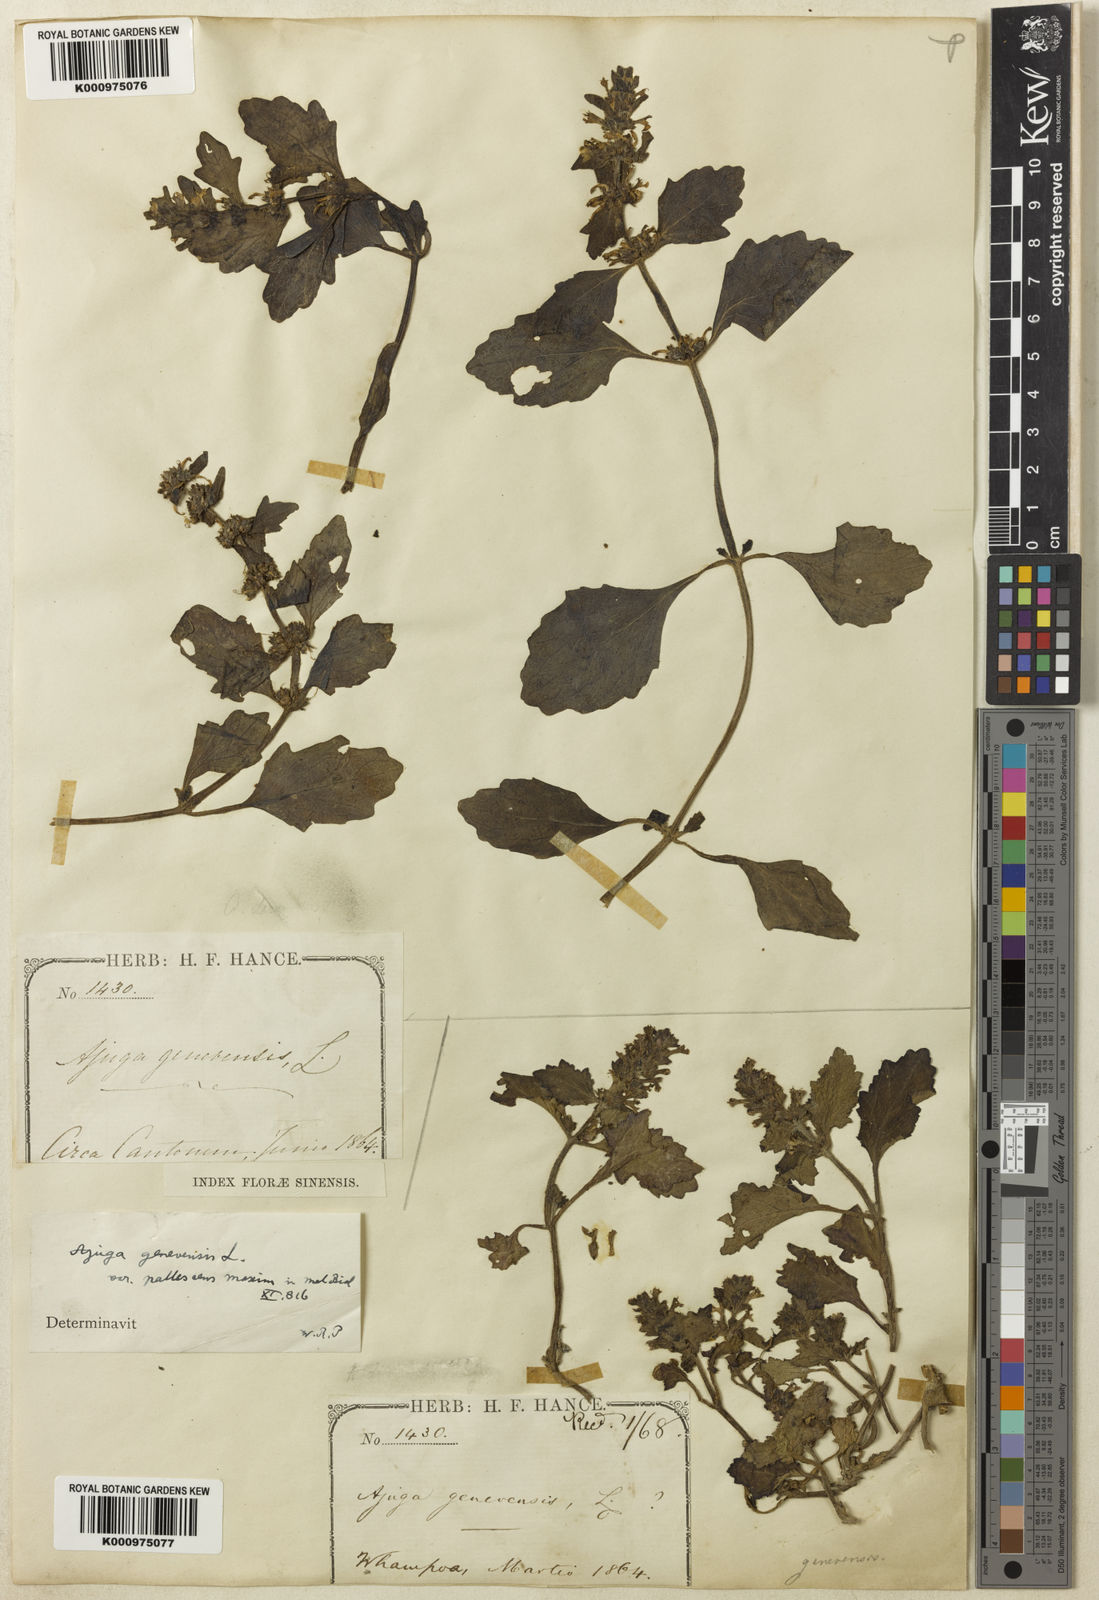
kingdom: Plantae
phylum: Tracheophyta
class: Magnoliopsida
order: Lamiales
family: Lamiaceae
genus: Ajuga
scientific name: Ajuga shikotanensis
